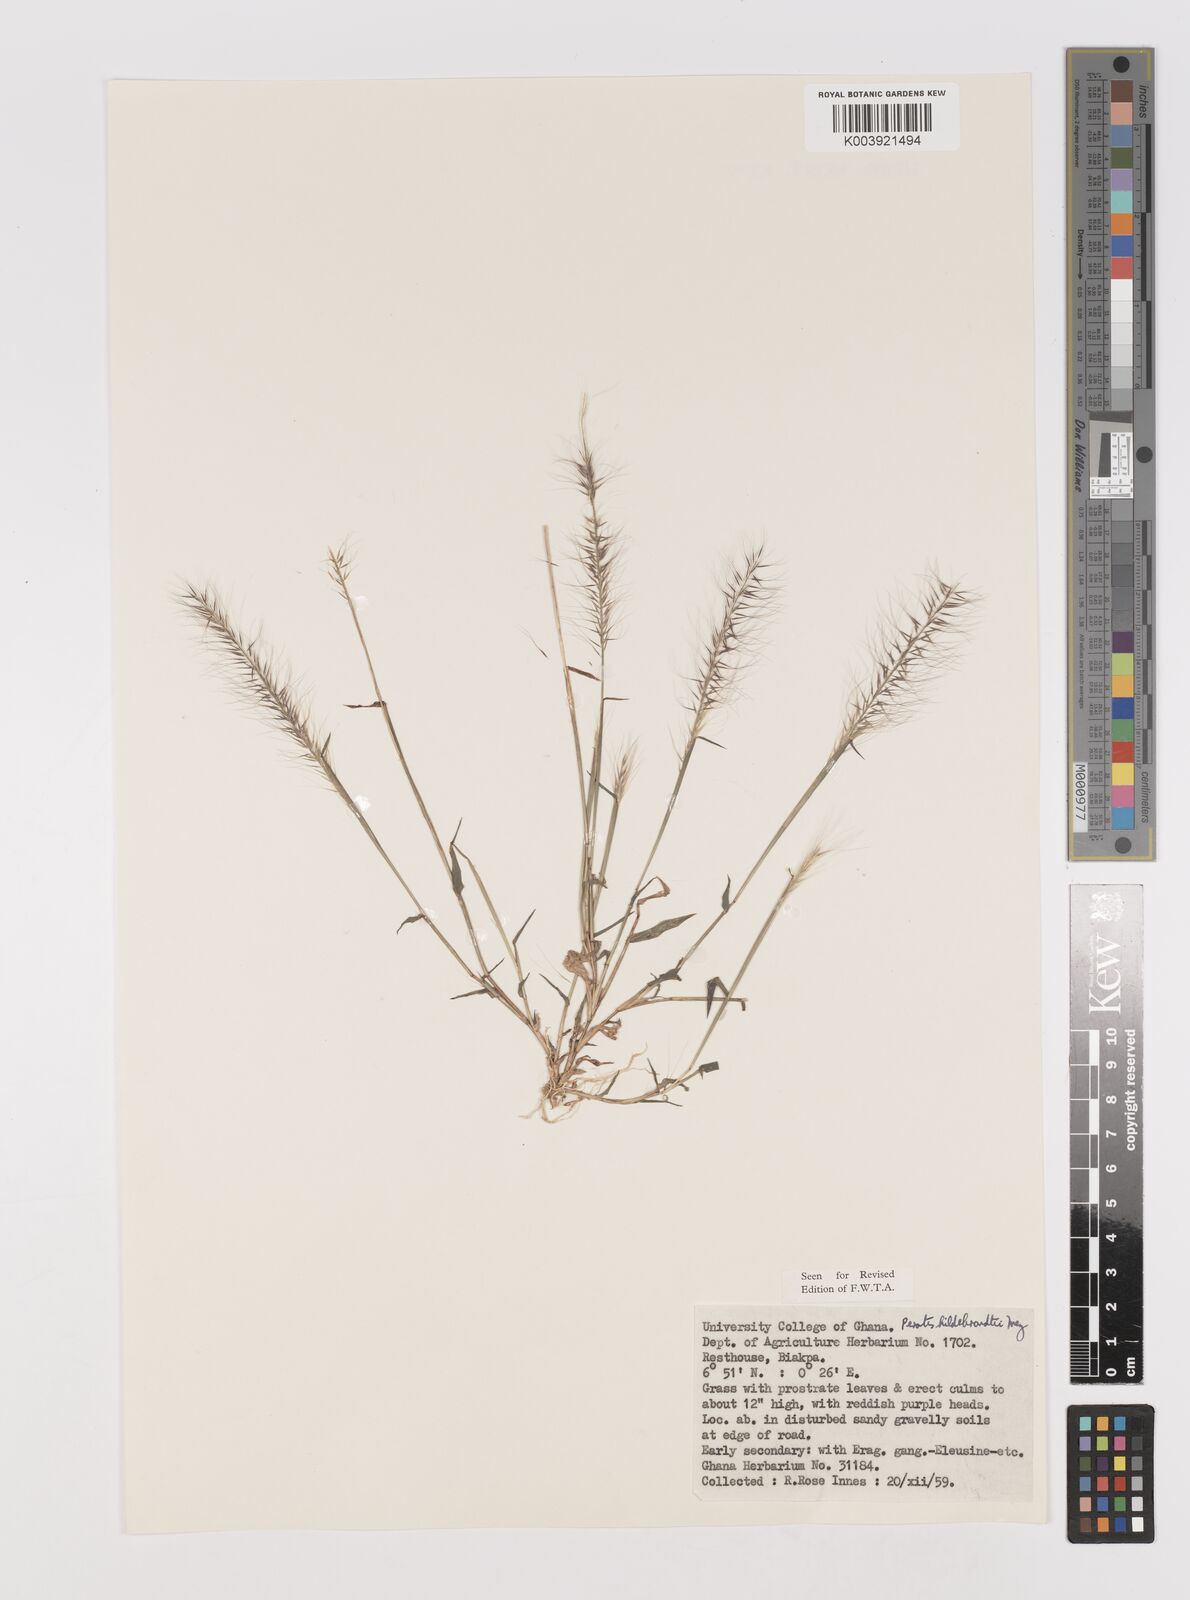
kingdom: Plantae
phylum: Tracheophyta
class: Liliopsida
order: Poales
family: Poaceae
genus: Perotis
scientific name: Perotis hildebrandtii
